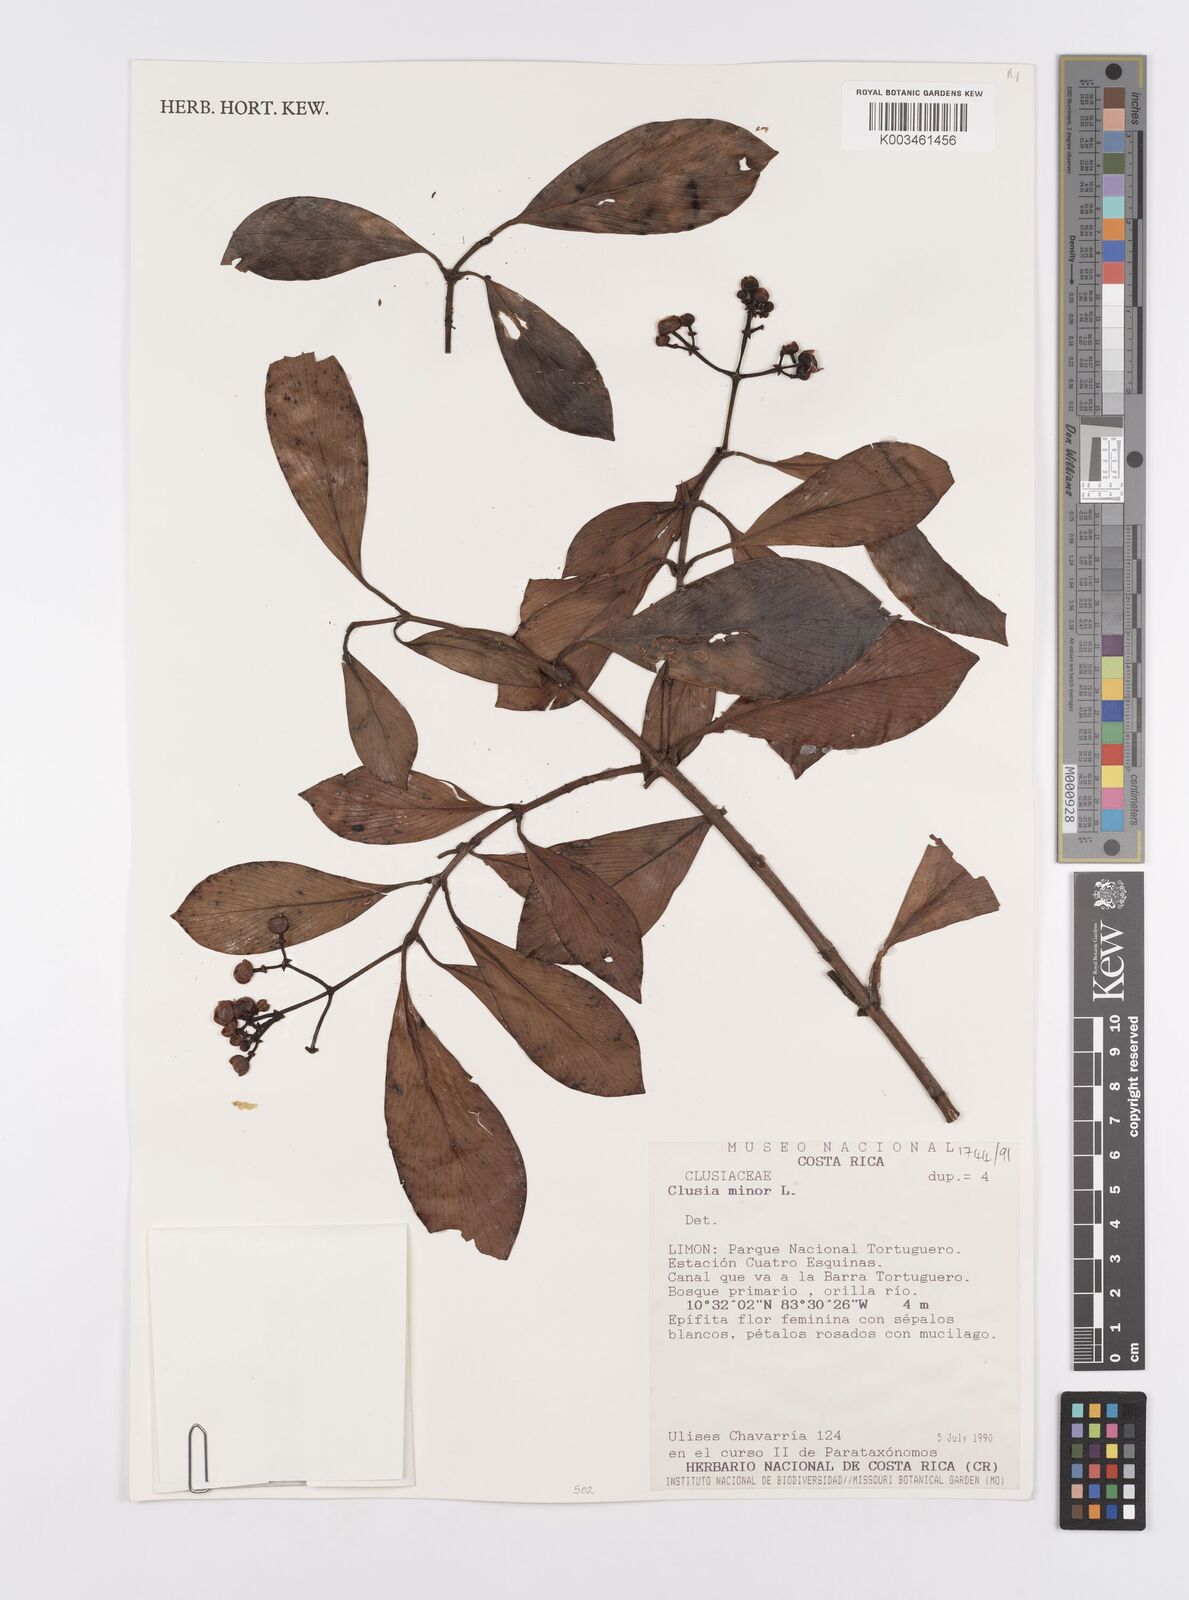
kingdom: Plantae
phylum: Tracheophyta
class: Magnoliopsida
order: Malpighiales
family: Clusiaceae
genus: Clusia
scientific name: Clusia minor
